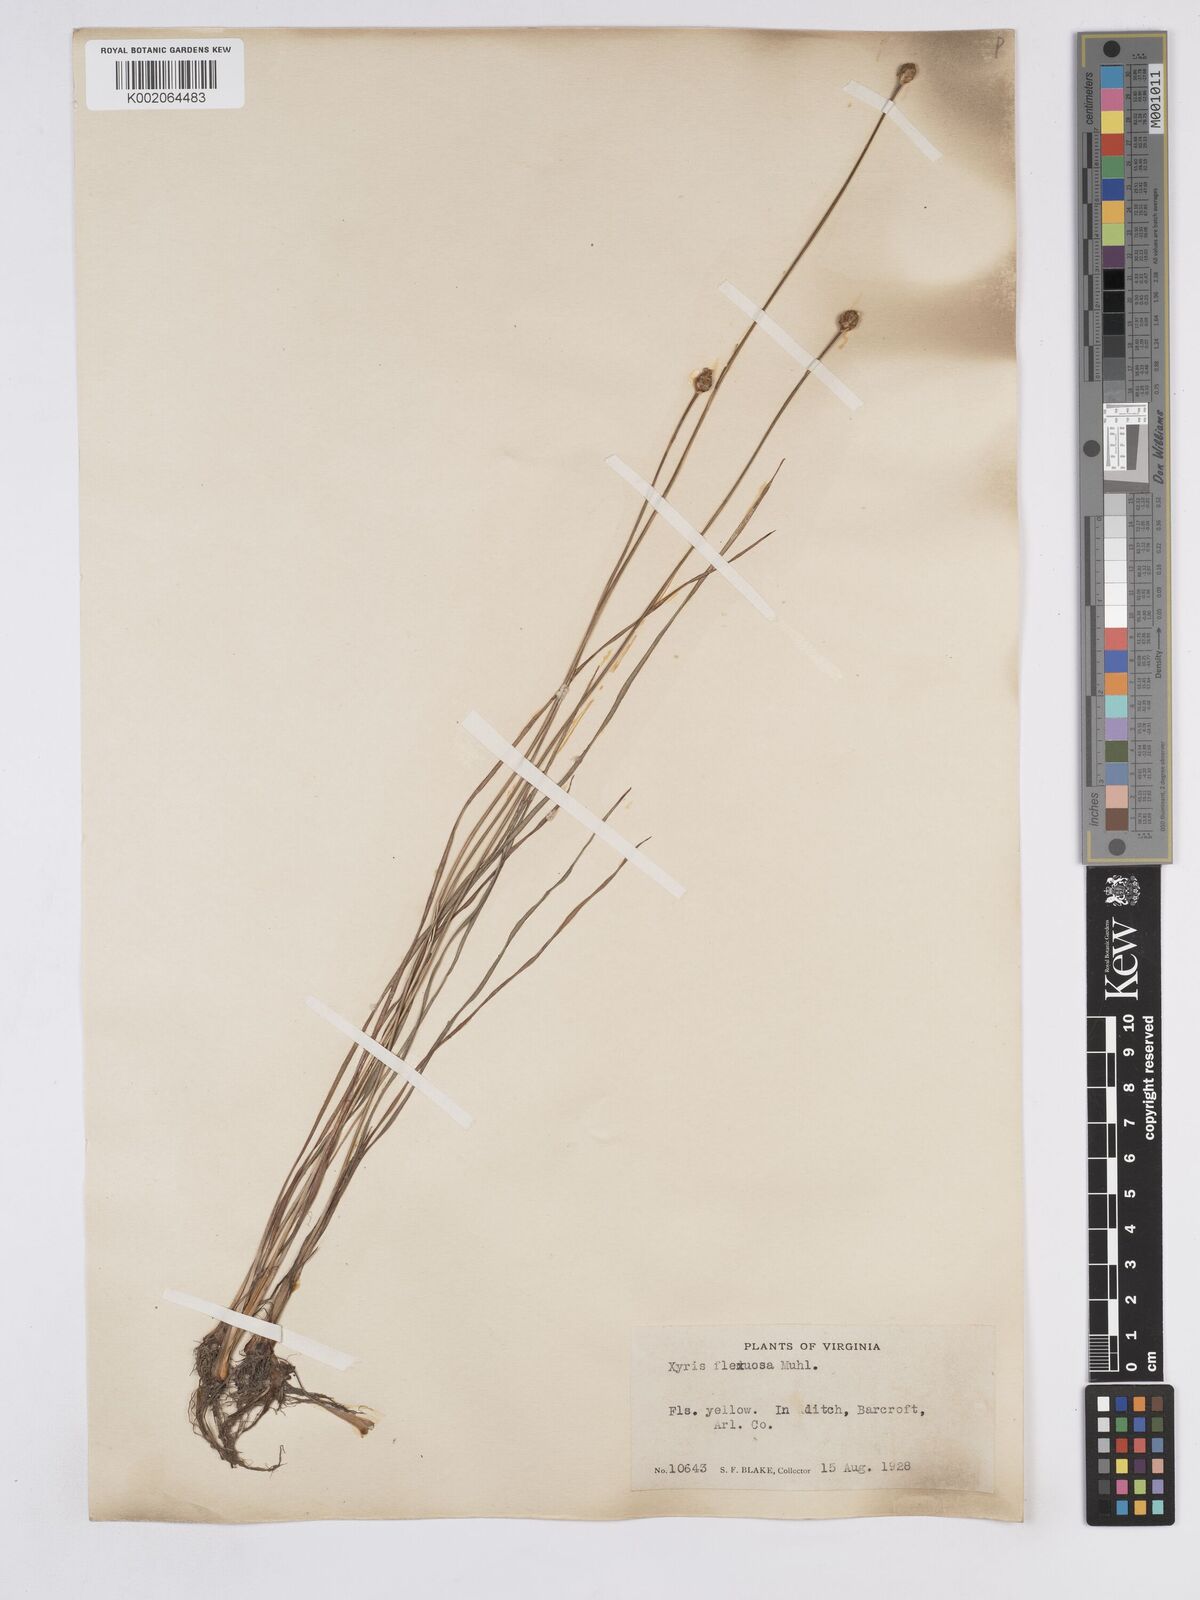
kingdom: Plantae
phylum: Tracheophyta
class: Liliopsida
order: Poales
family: Xyridaceae
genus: Xyris
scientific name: Xyris caroliniana
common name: Carolina yellow-eyed-grass
